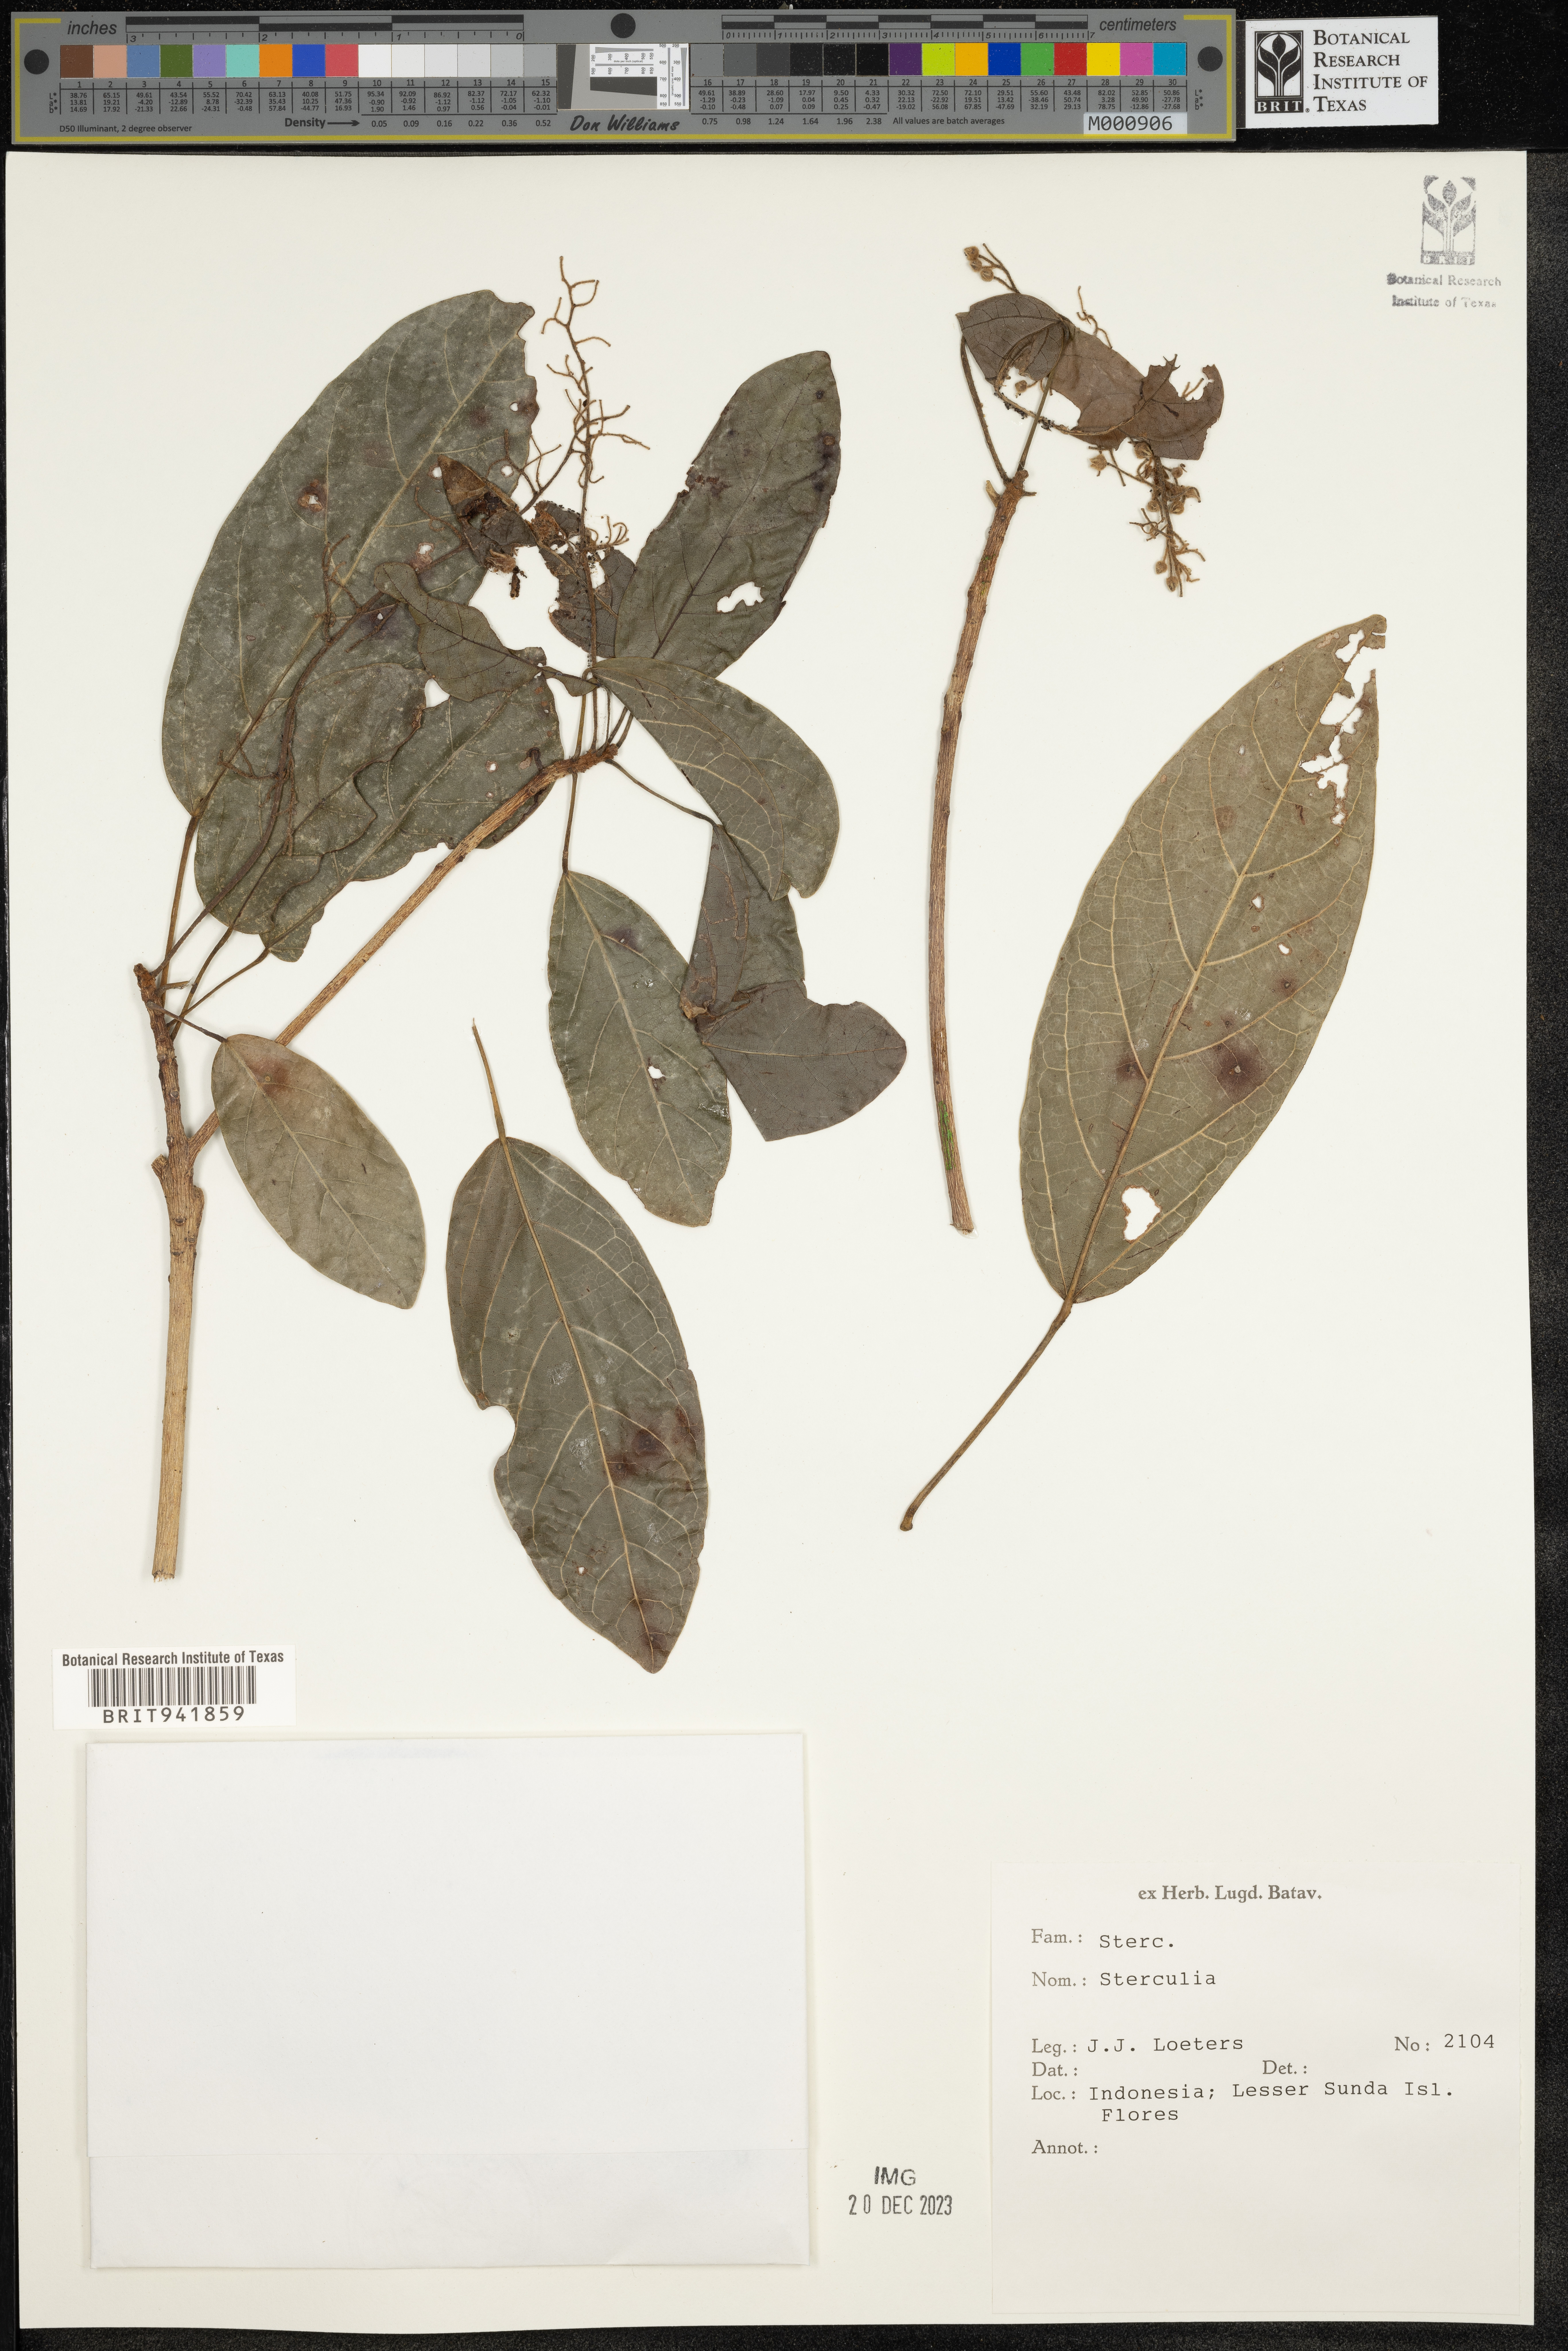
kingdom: Plantae
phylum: Tracheophyta
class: Magnoliopsida
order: Malvales
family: Malvaceae
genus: Sterculia
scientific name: Sterculia
